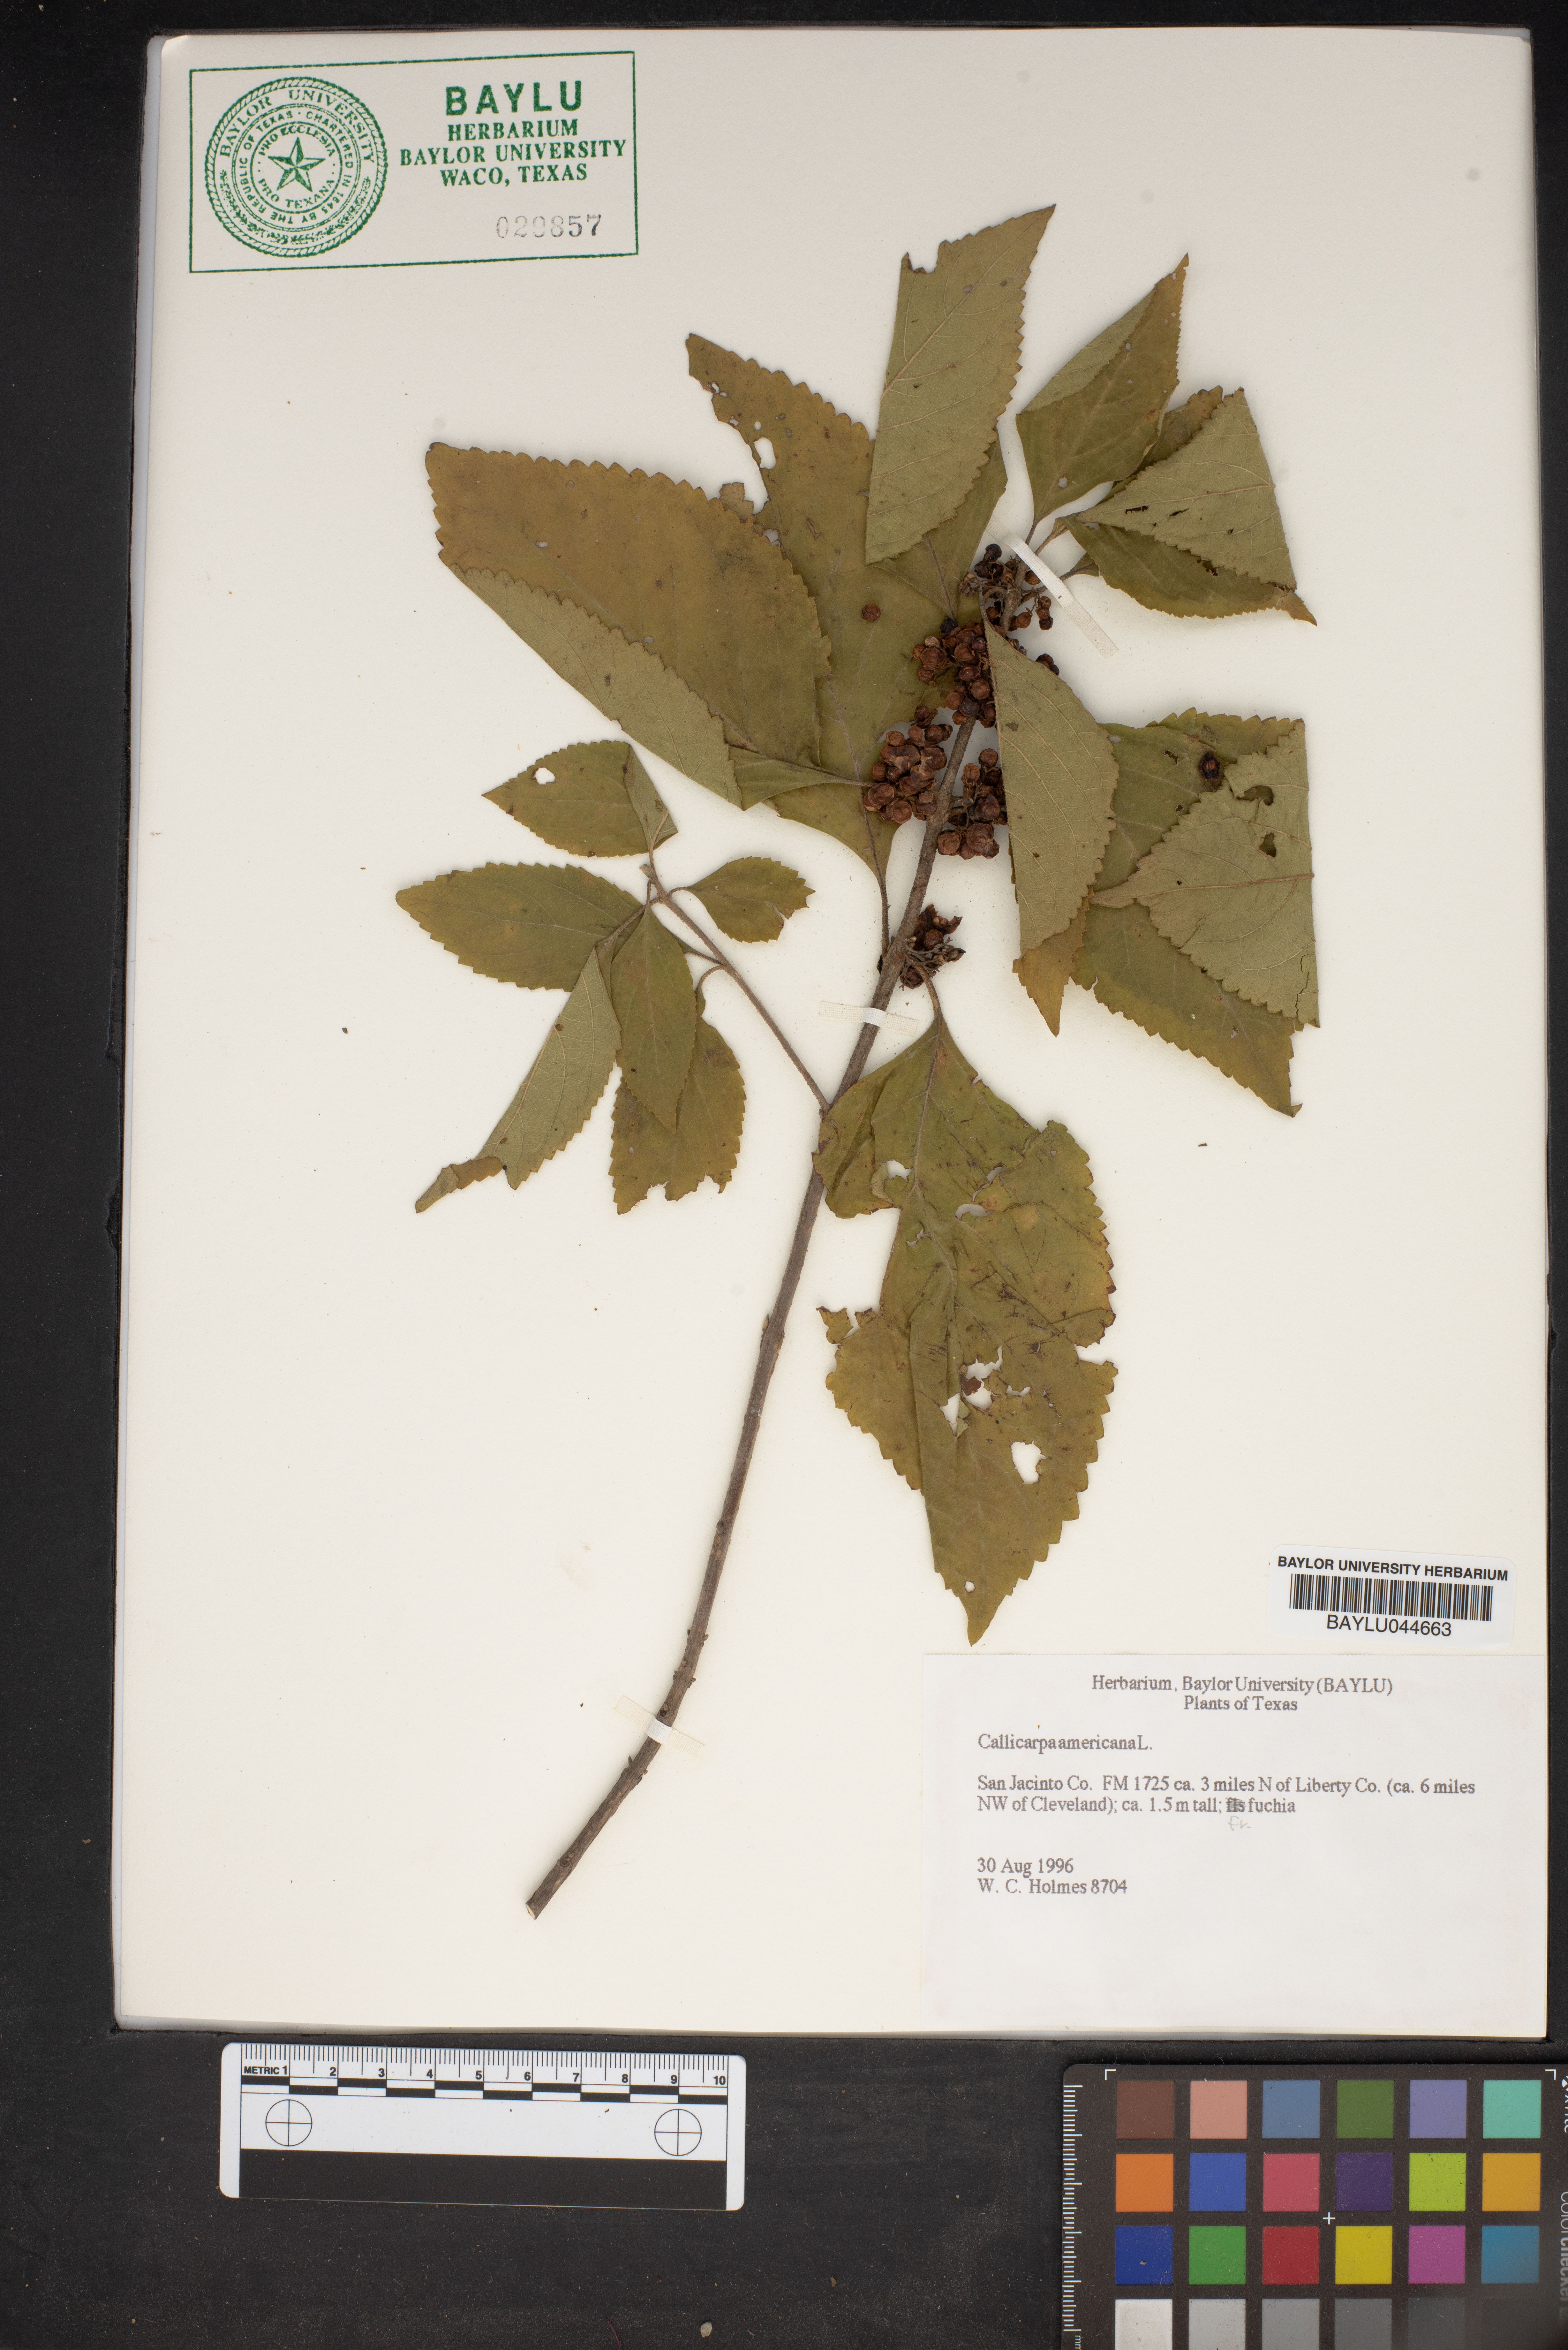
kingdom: Plantae
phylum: Tracheophyta
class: Magnoliopsida
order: Lamiales
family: Lamiaceae
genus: Callicarpa
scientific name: Callicarpa americana
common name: American beautyberry
